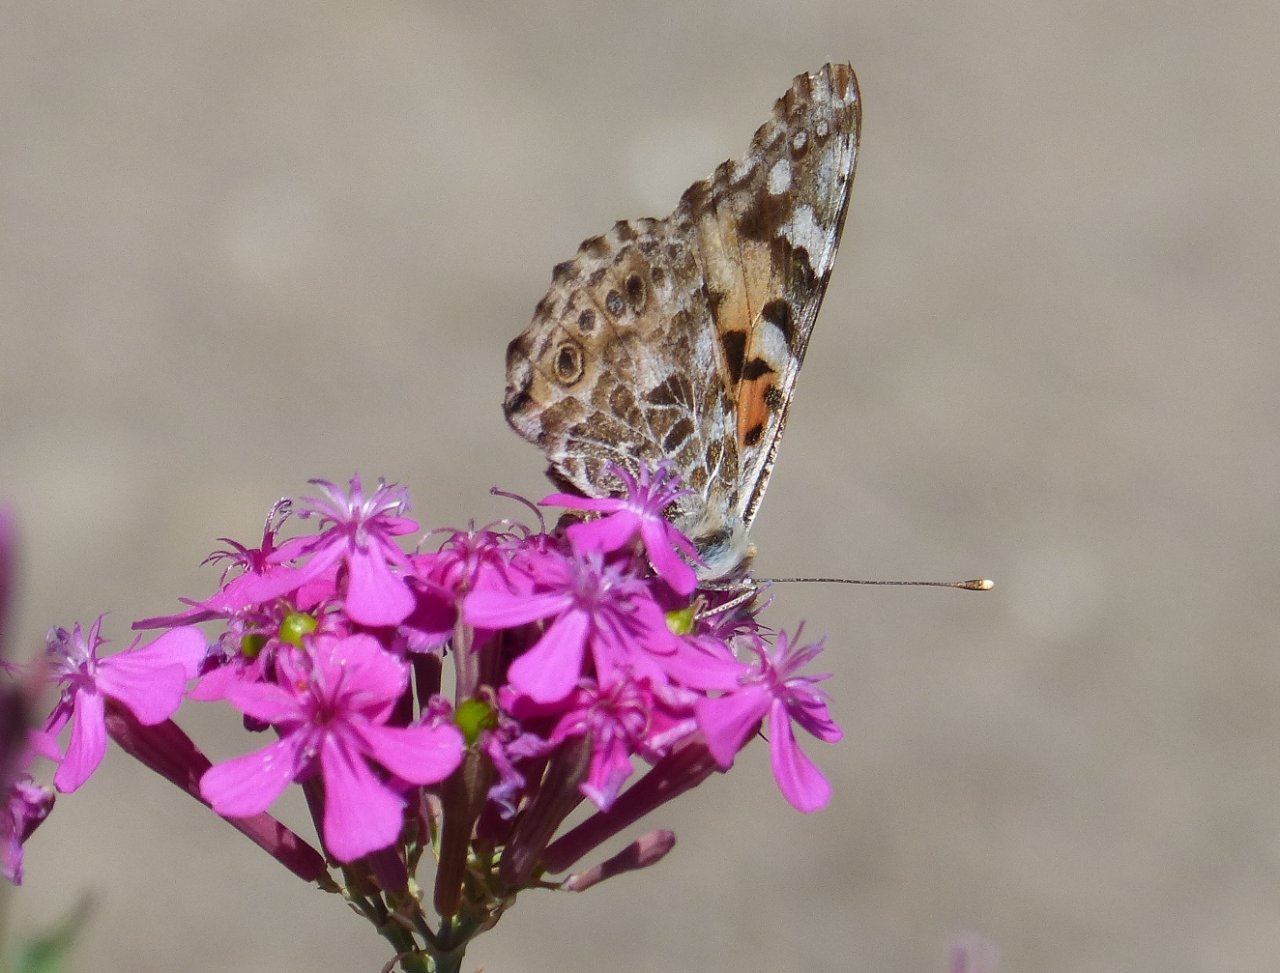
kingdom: Animalia
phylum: Arthropoda
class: Insecta
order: Lepidoptera
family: Nymphalidae
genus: Vanessa
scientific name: Vanessa cardui
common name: Painted Lady
